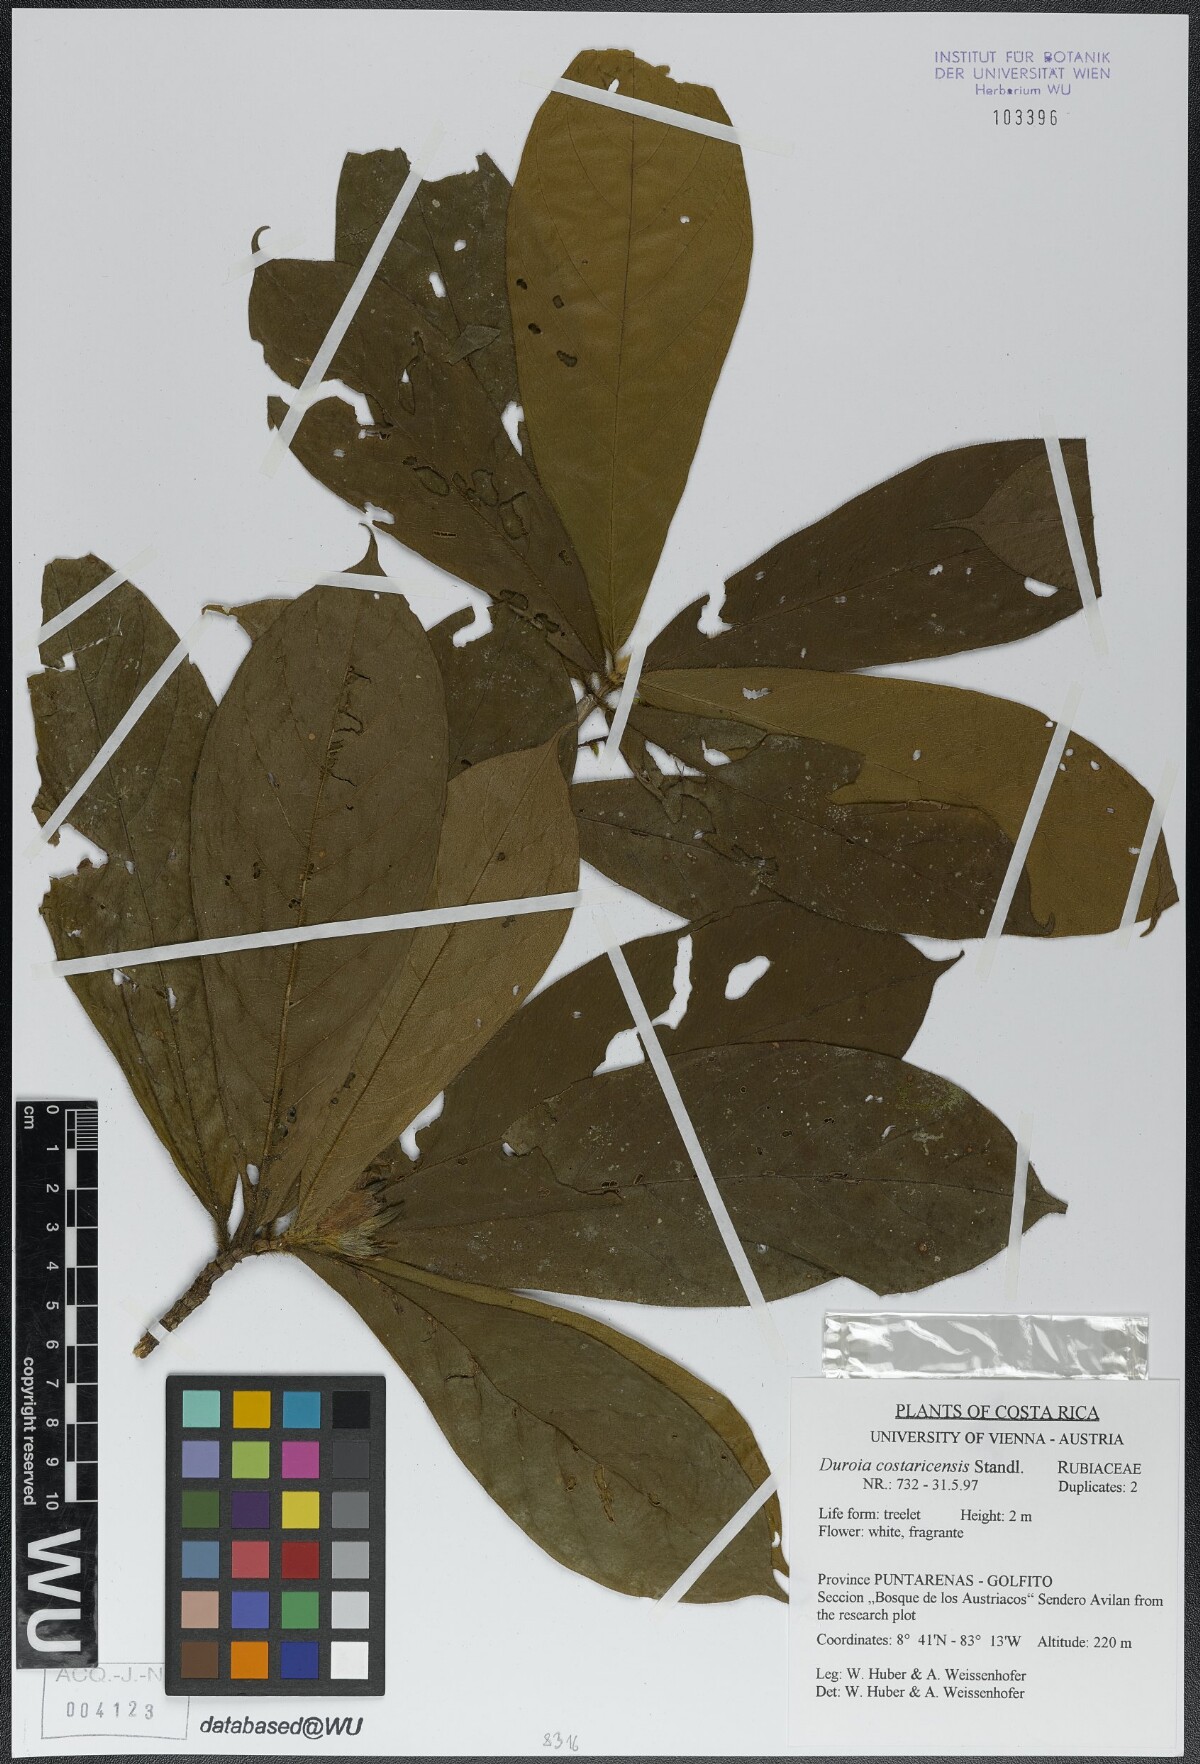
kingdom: Plantae
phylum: Tracheophyta
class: Magnoliopsida
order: Gentianales
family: Rubiaceae
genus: Duroia
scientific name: Duroia costaricensis
